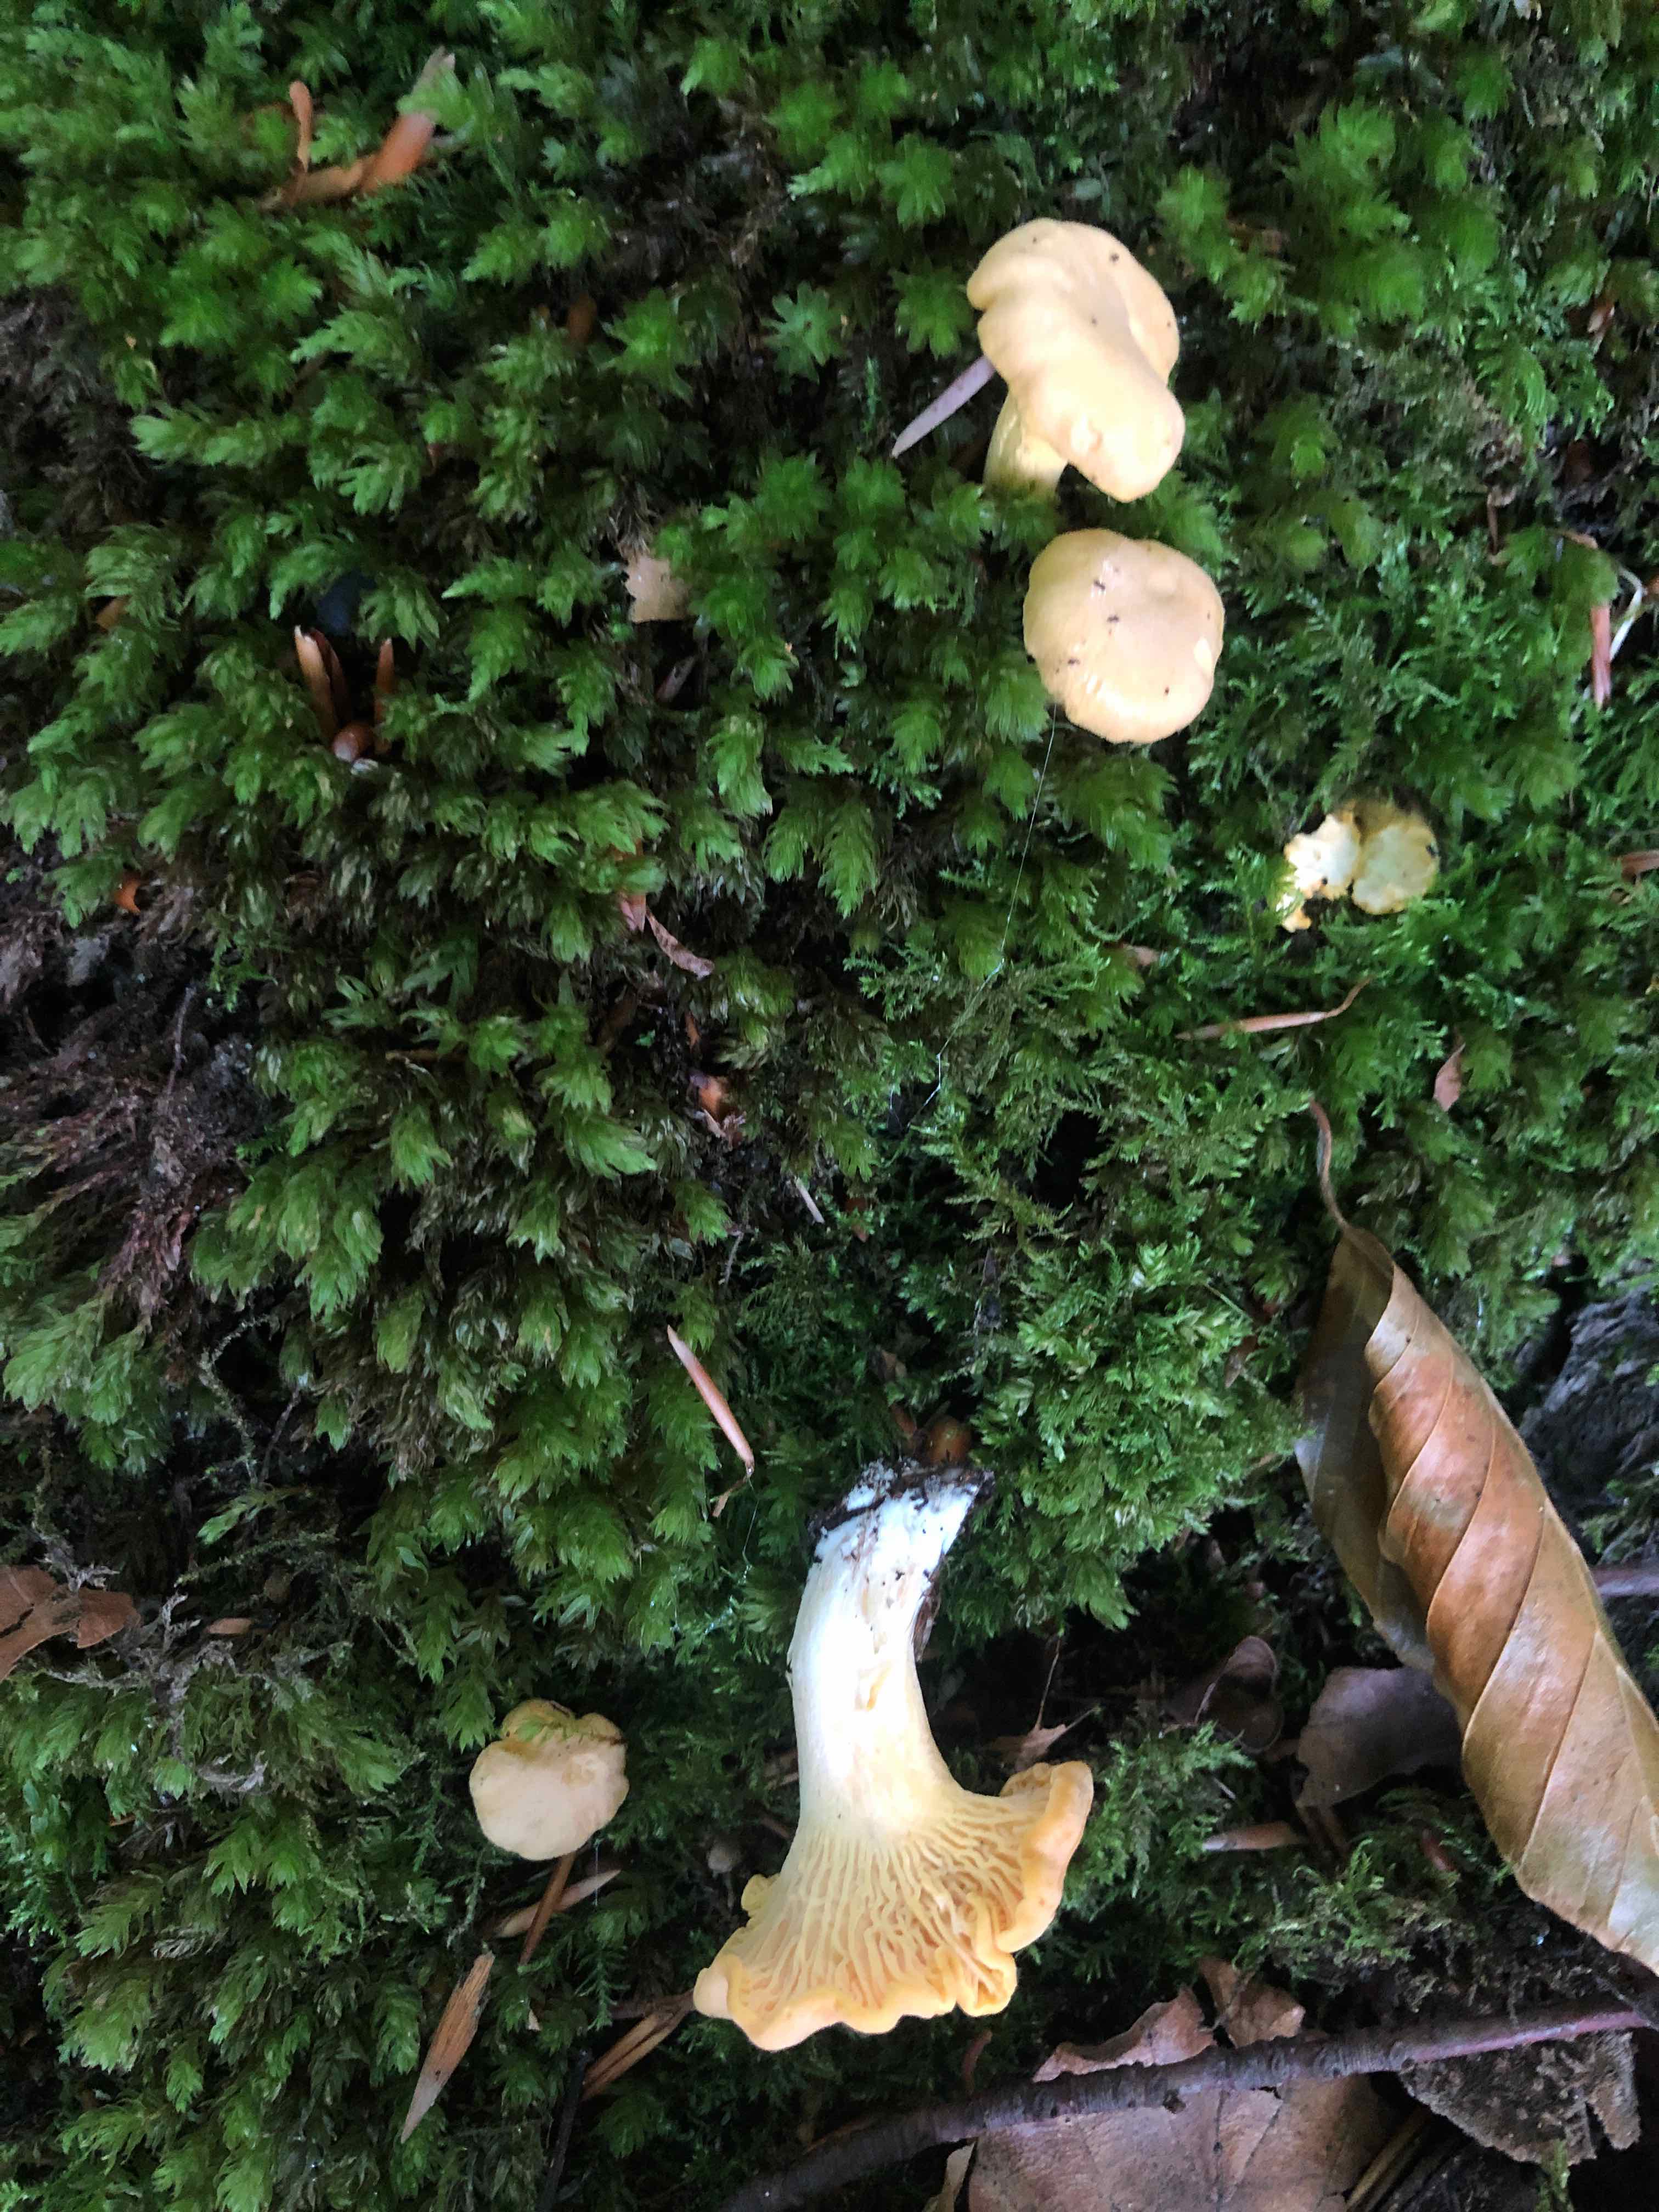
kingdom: Fungi
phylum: Basidiomycota
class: Agaricomycetes
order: Cantharellales
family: Hydnaceae
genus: Cantharellus
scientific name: Cantharellus pallens
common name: bleg kantarel
